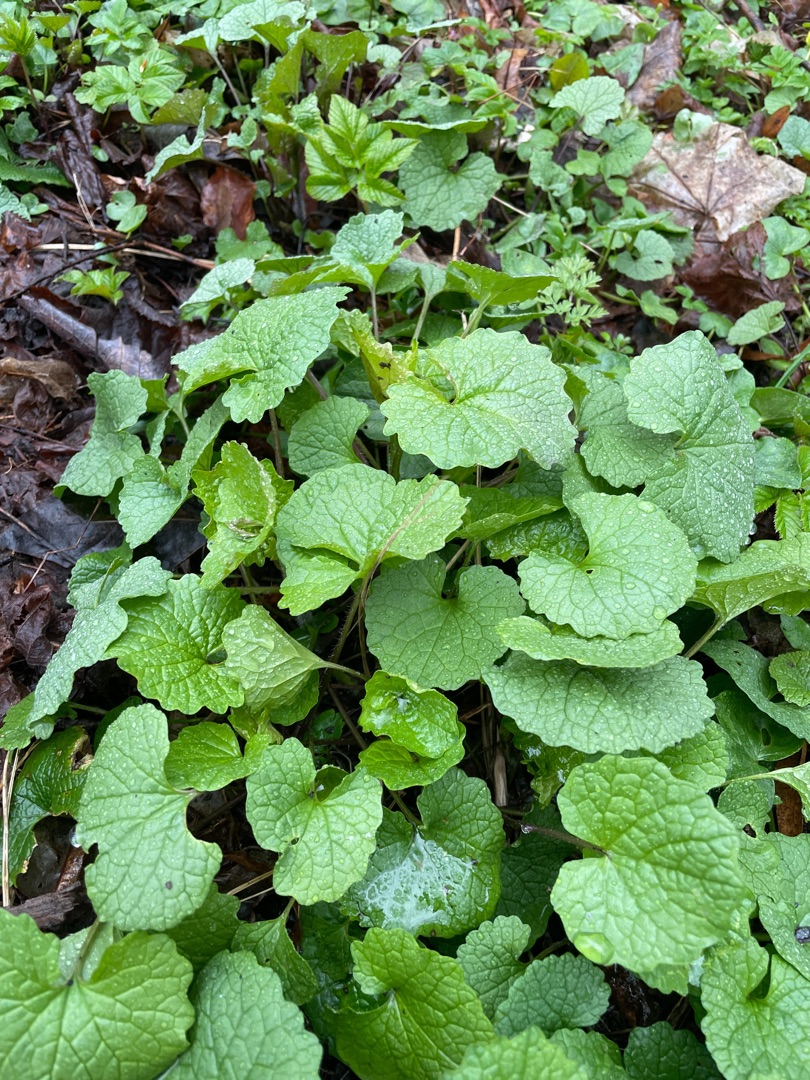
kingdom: Plantae
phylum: Tracheophyta
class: Magnoliopsida
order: Brassicales
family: Brassicaceae
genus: Alliaria
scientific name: Alliaria petiolata
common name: Løgkarse
